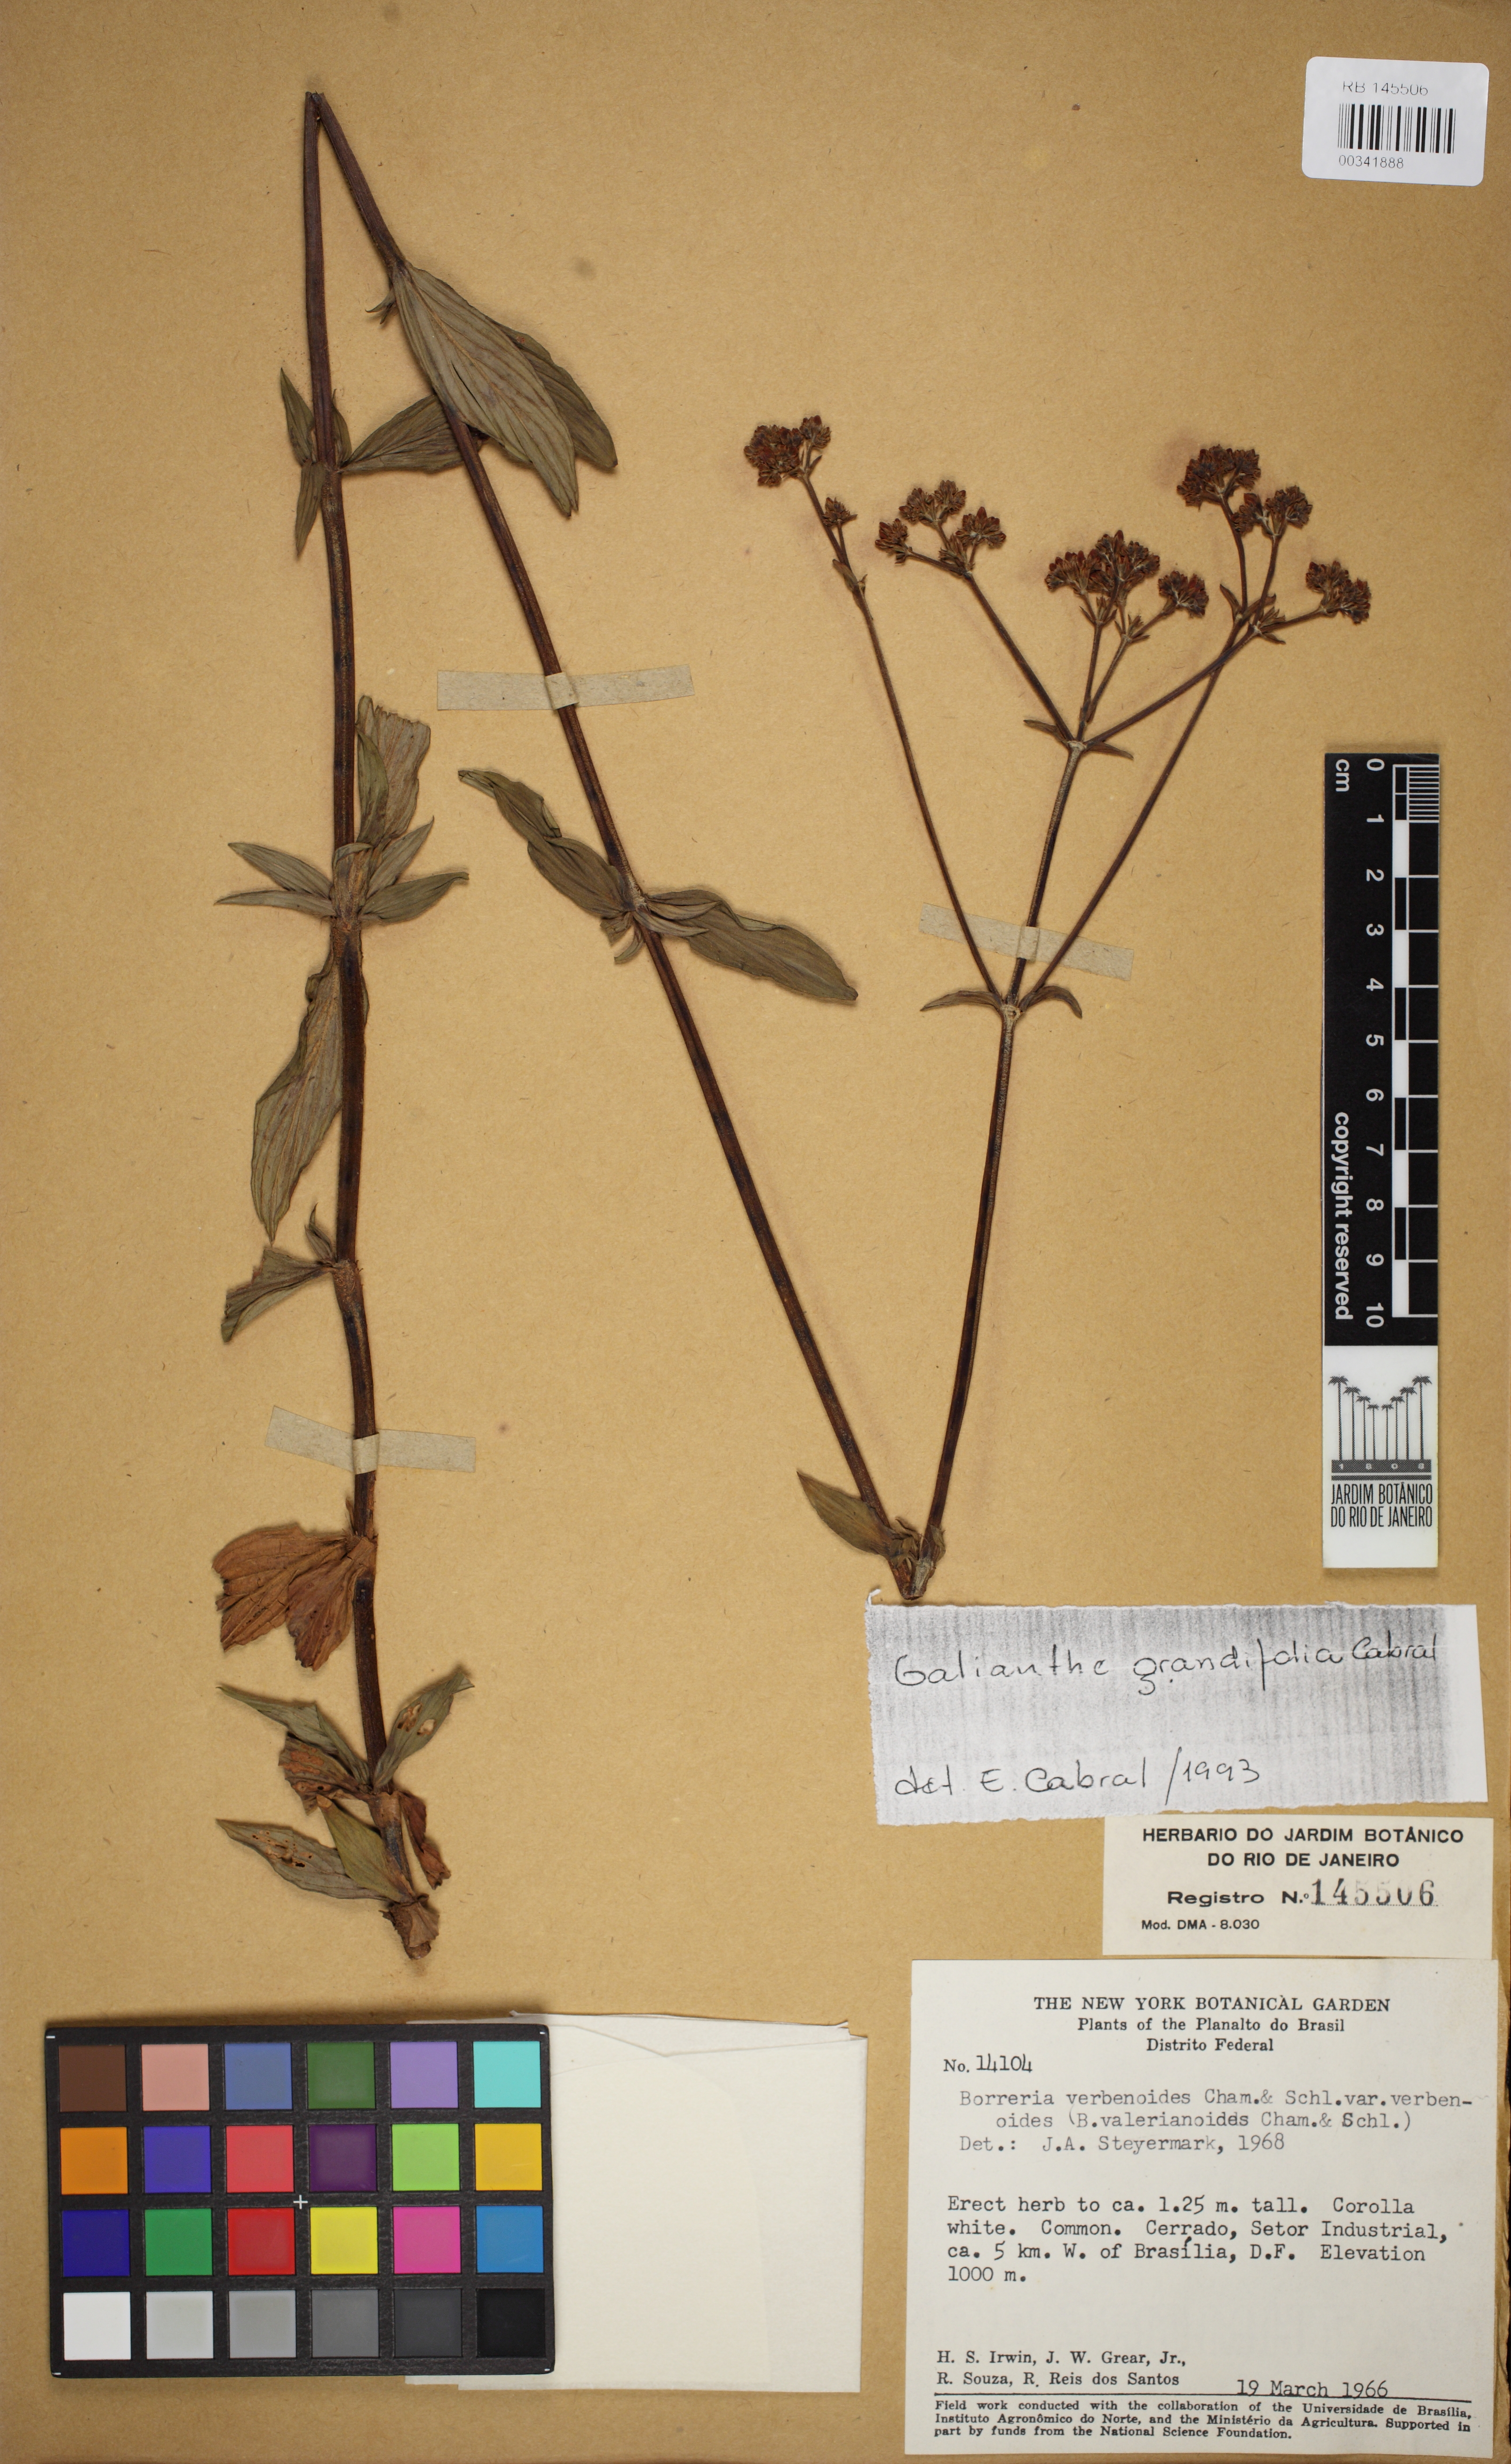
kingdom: Plantae
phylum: Tracheophyta
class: Magnoliopsida
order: Gentianales
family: Rubiaceae
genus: Galianthe
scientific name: Galianthe grandifolia
